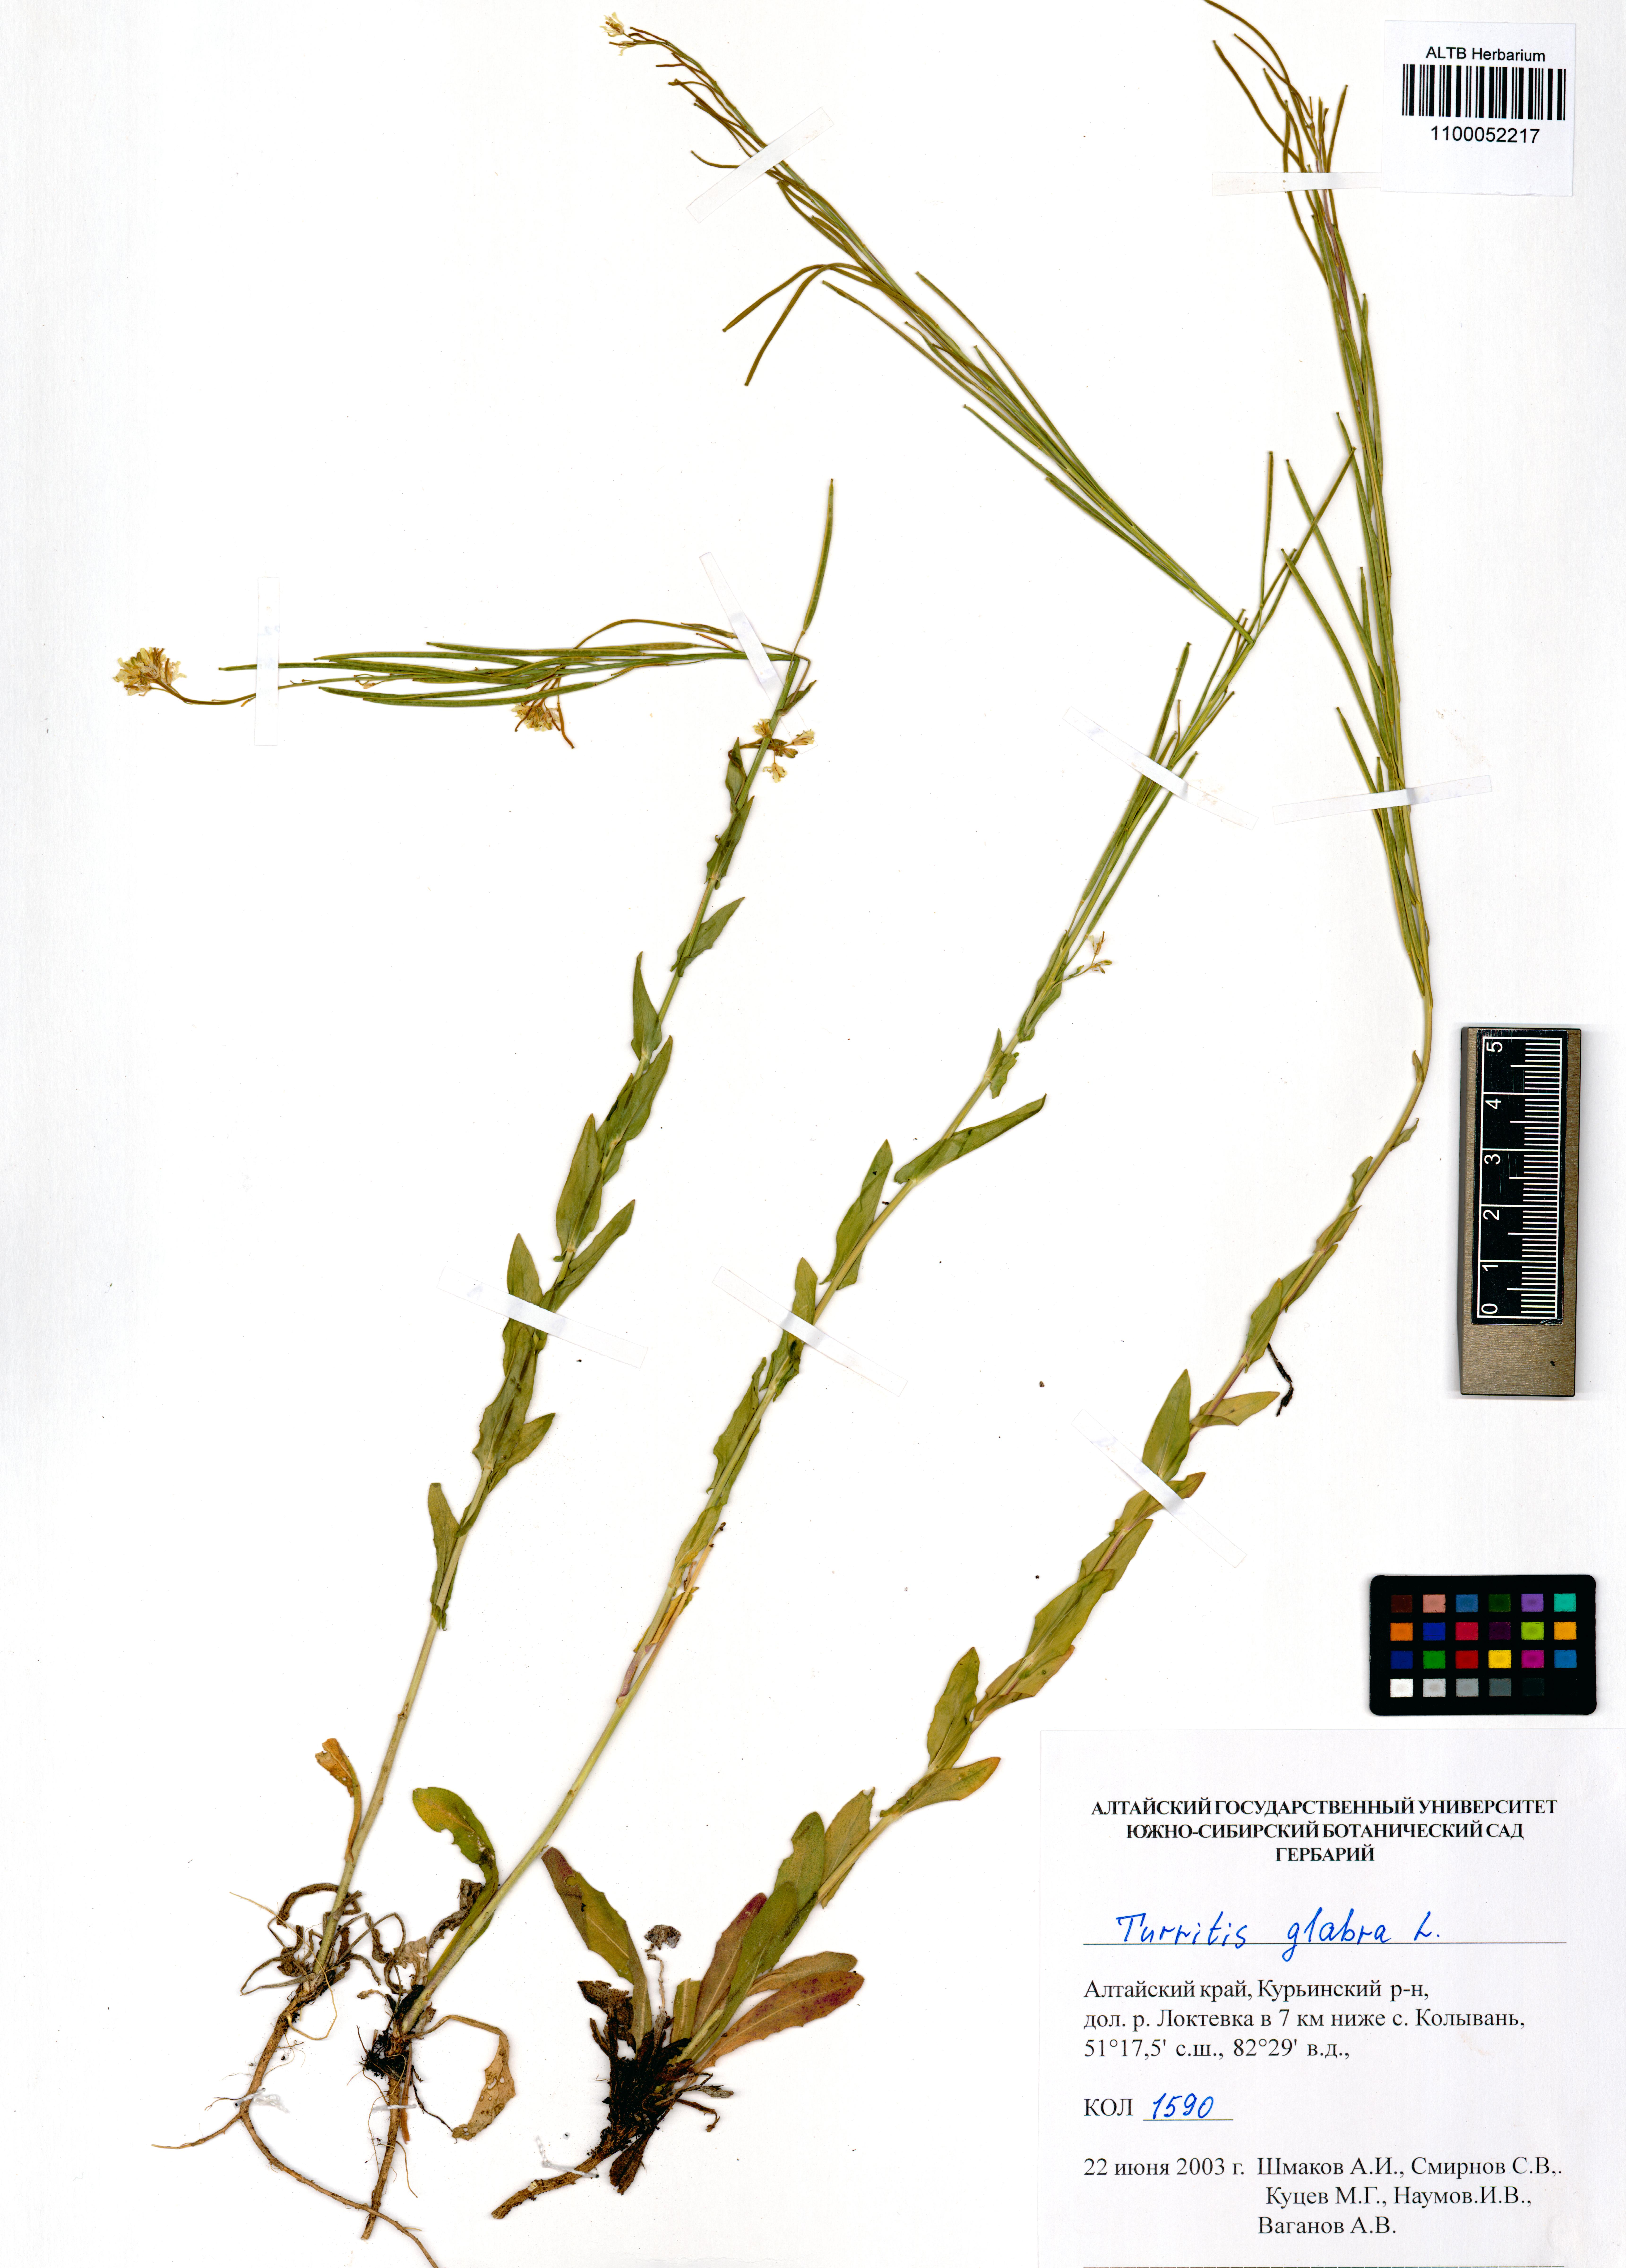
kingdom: Plantae
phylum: Tracheophyta
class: Magnoliopsida
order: Brassicales
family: Brassicaceae
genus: Turritis
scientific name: Turritis glabra
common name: Tower rockcress
